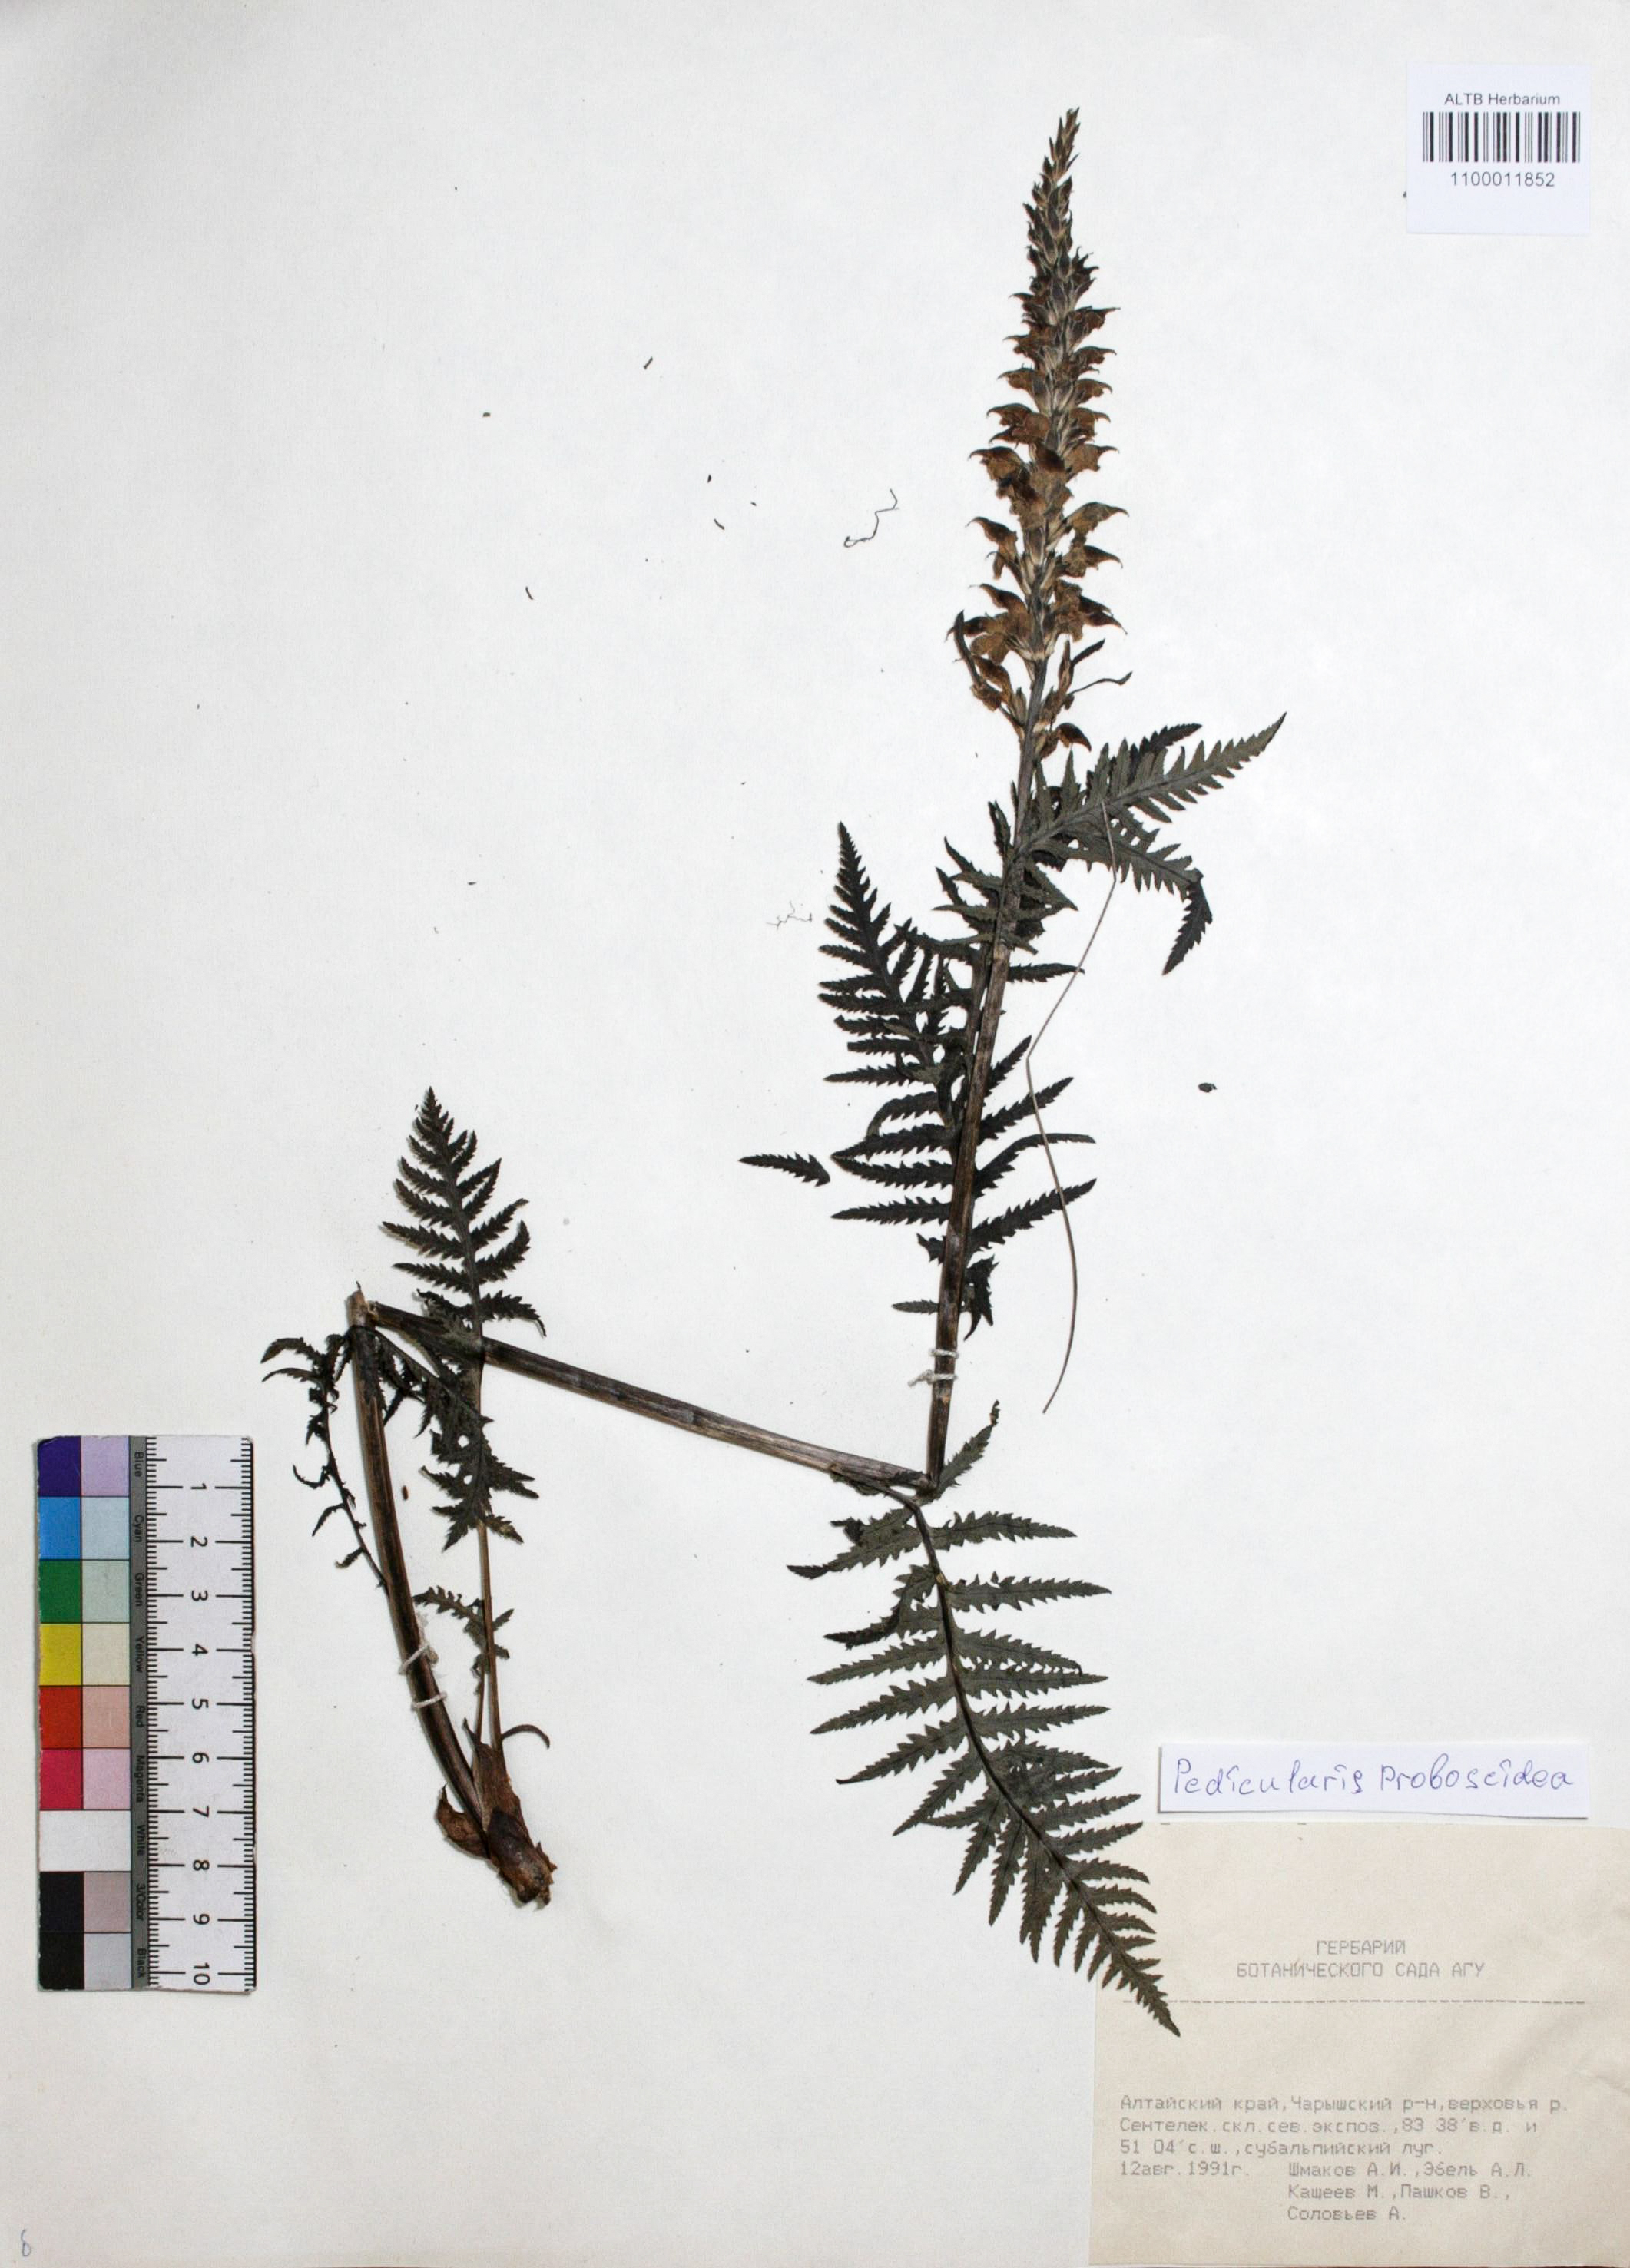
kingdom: Plantae
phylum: Tracheophyta
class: Magnoliopsida
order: Lamiales
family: Orobanchaceae
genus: Pedicularis
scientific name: Pedicularis proboscidea
